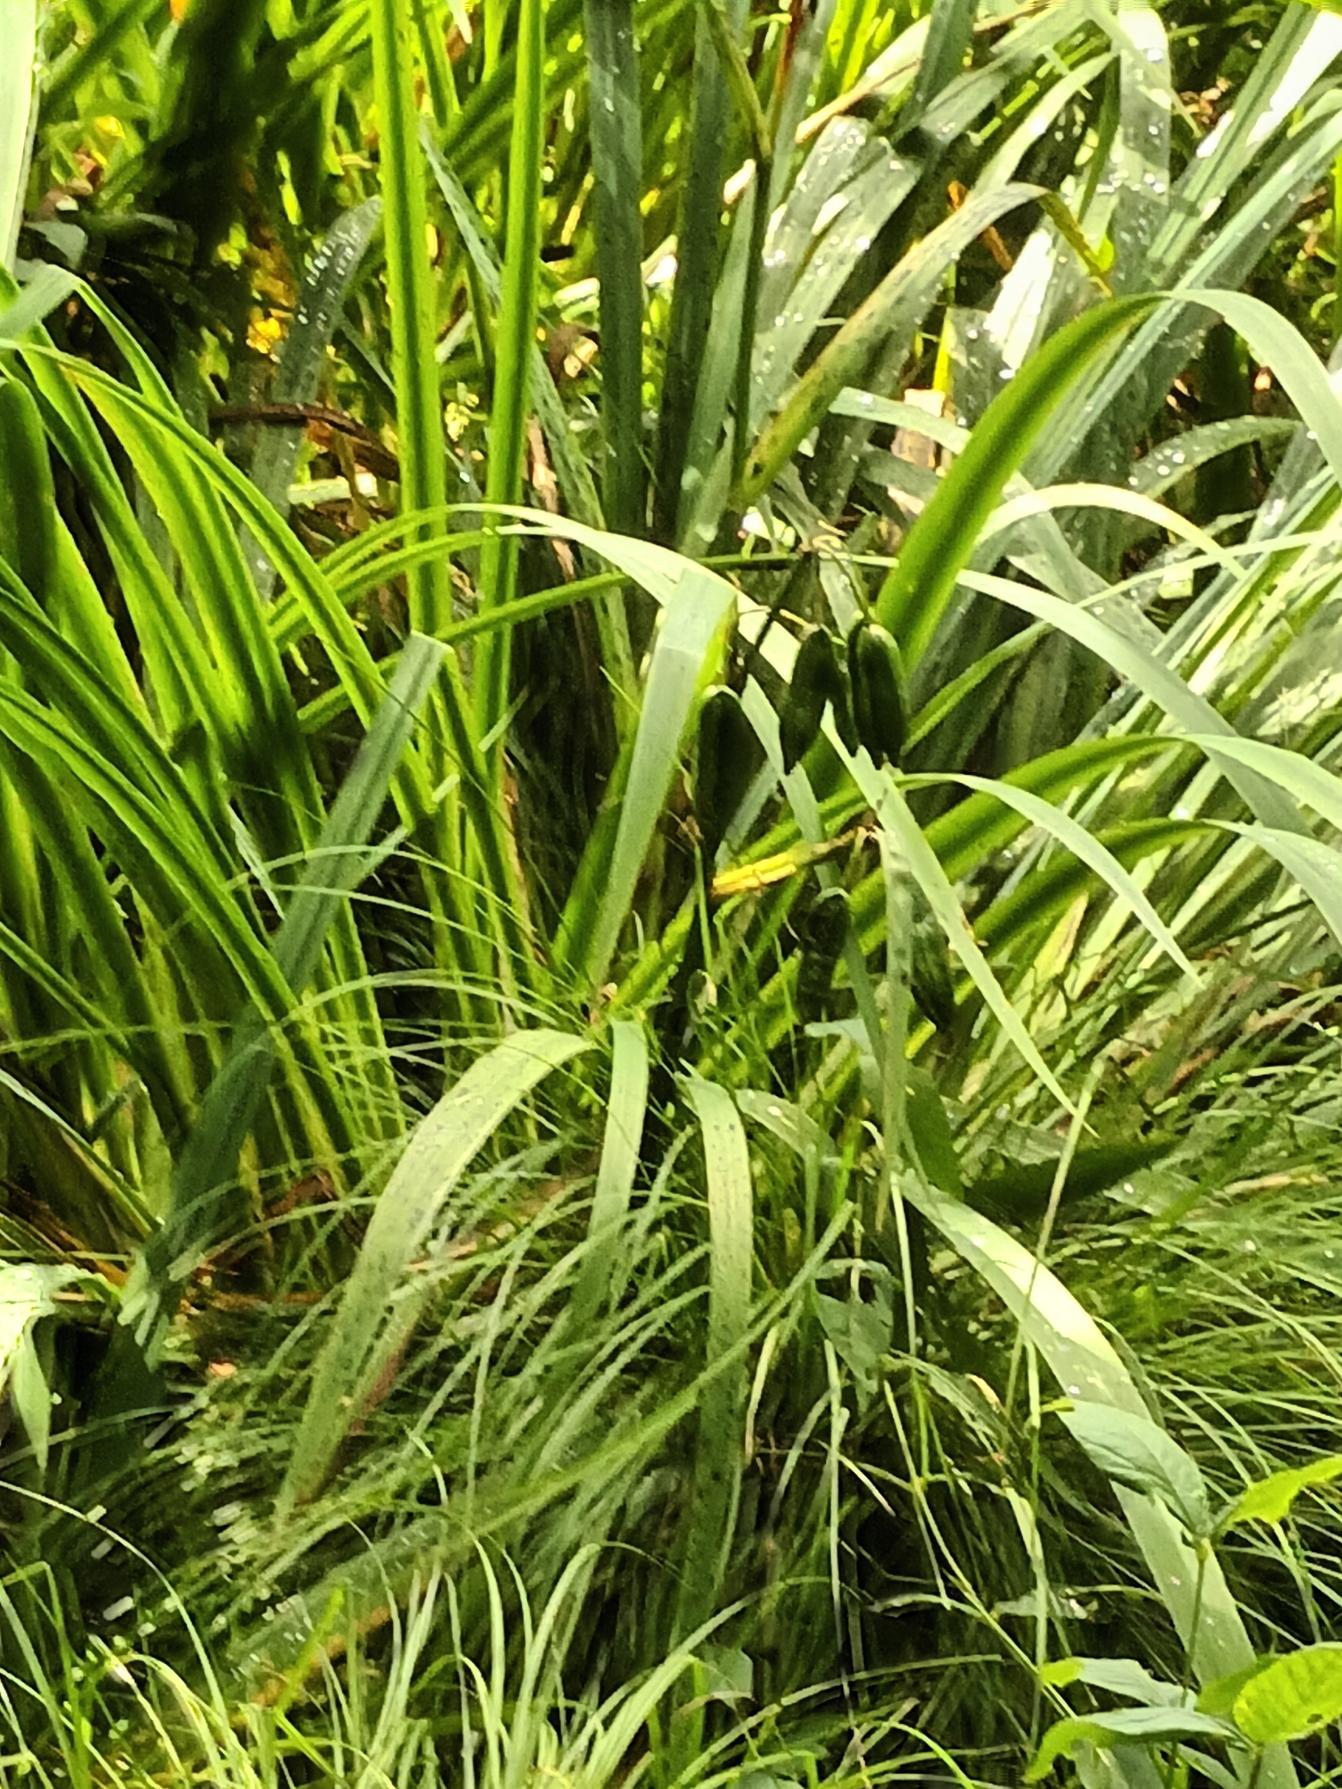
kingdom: Plantae
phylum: Tracheophyta
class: Liliopsida
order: Asparagales
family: Iridaceae
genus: Iris
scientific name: Iris pseudacorus
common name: Gul iris
